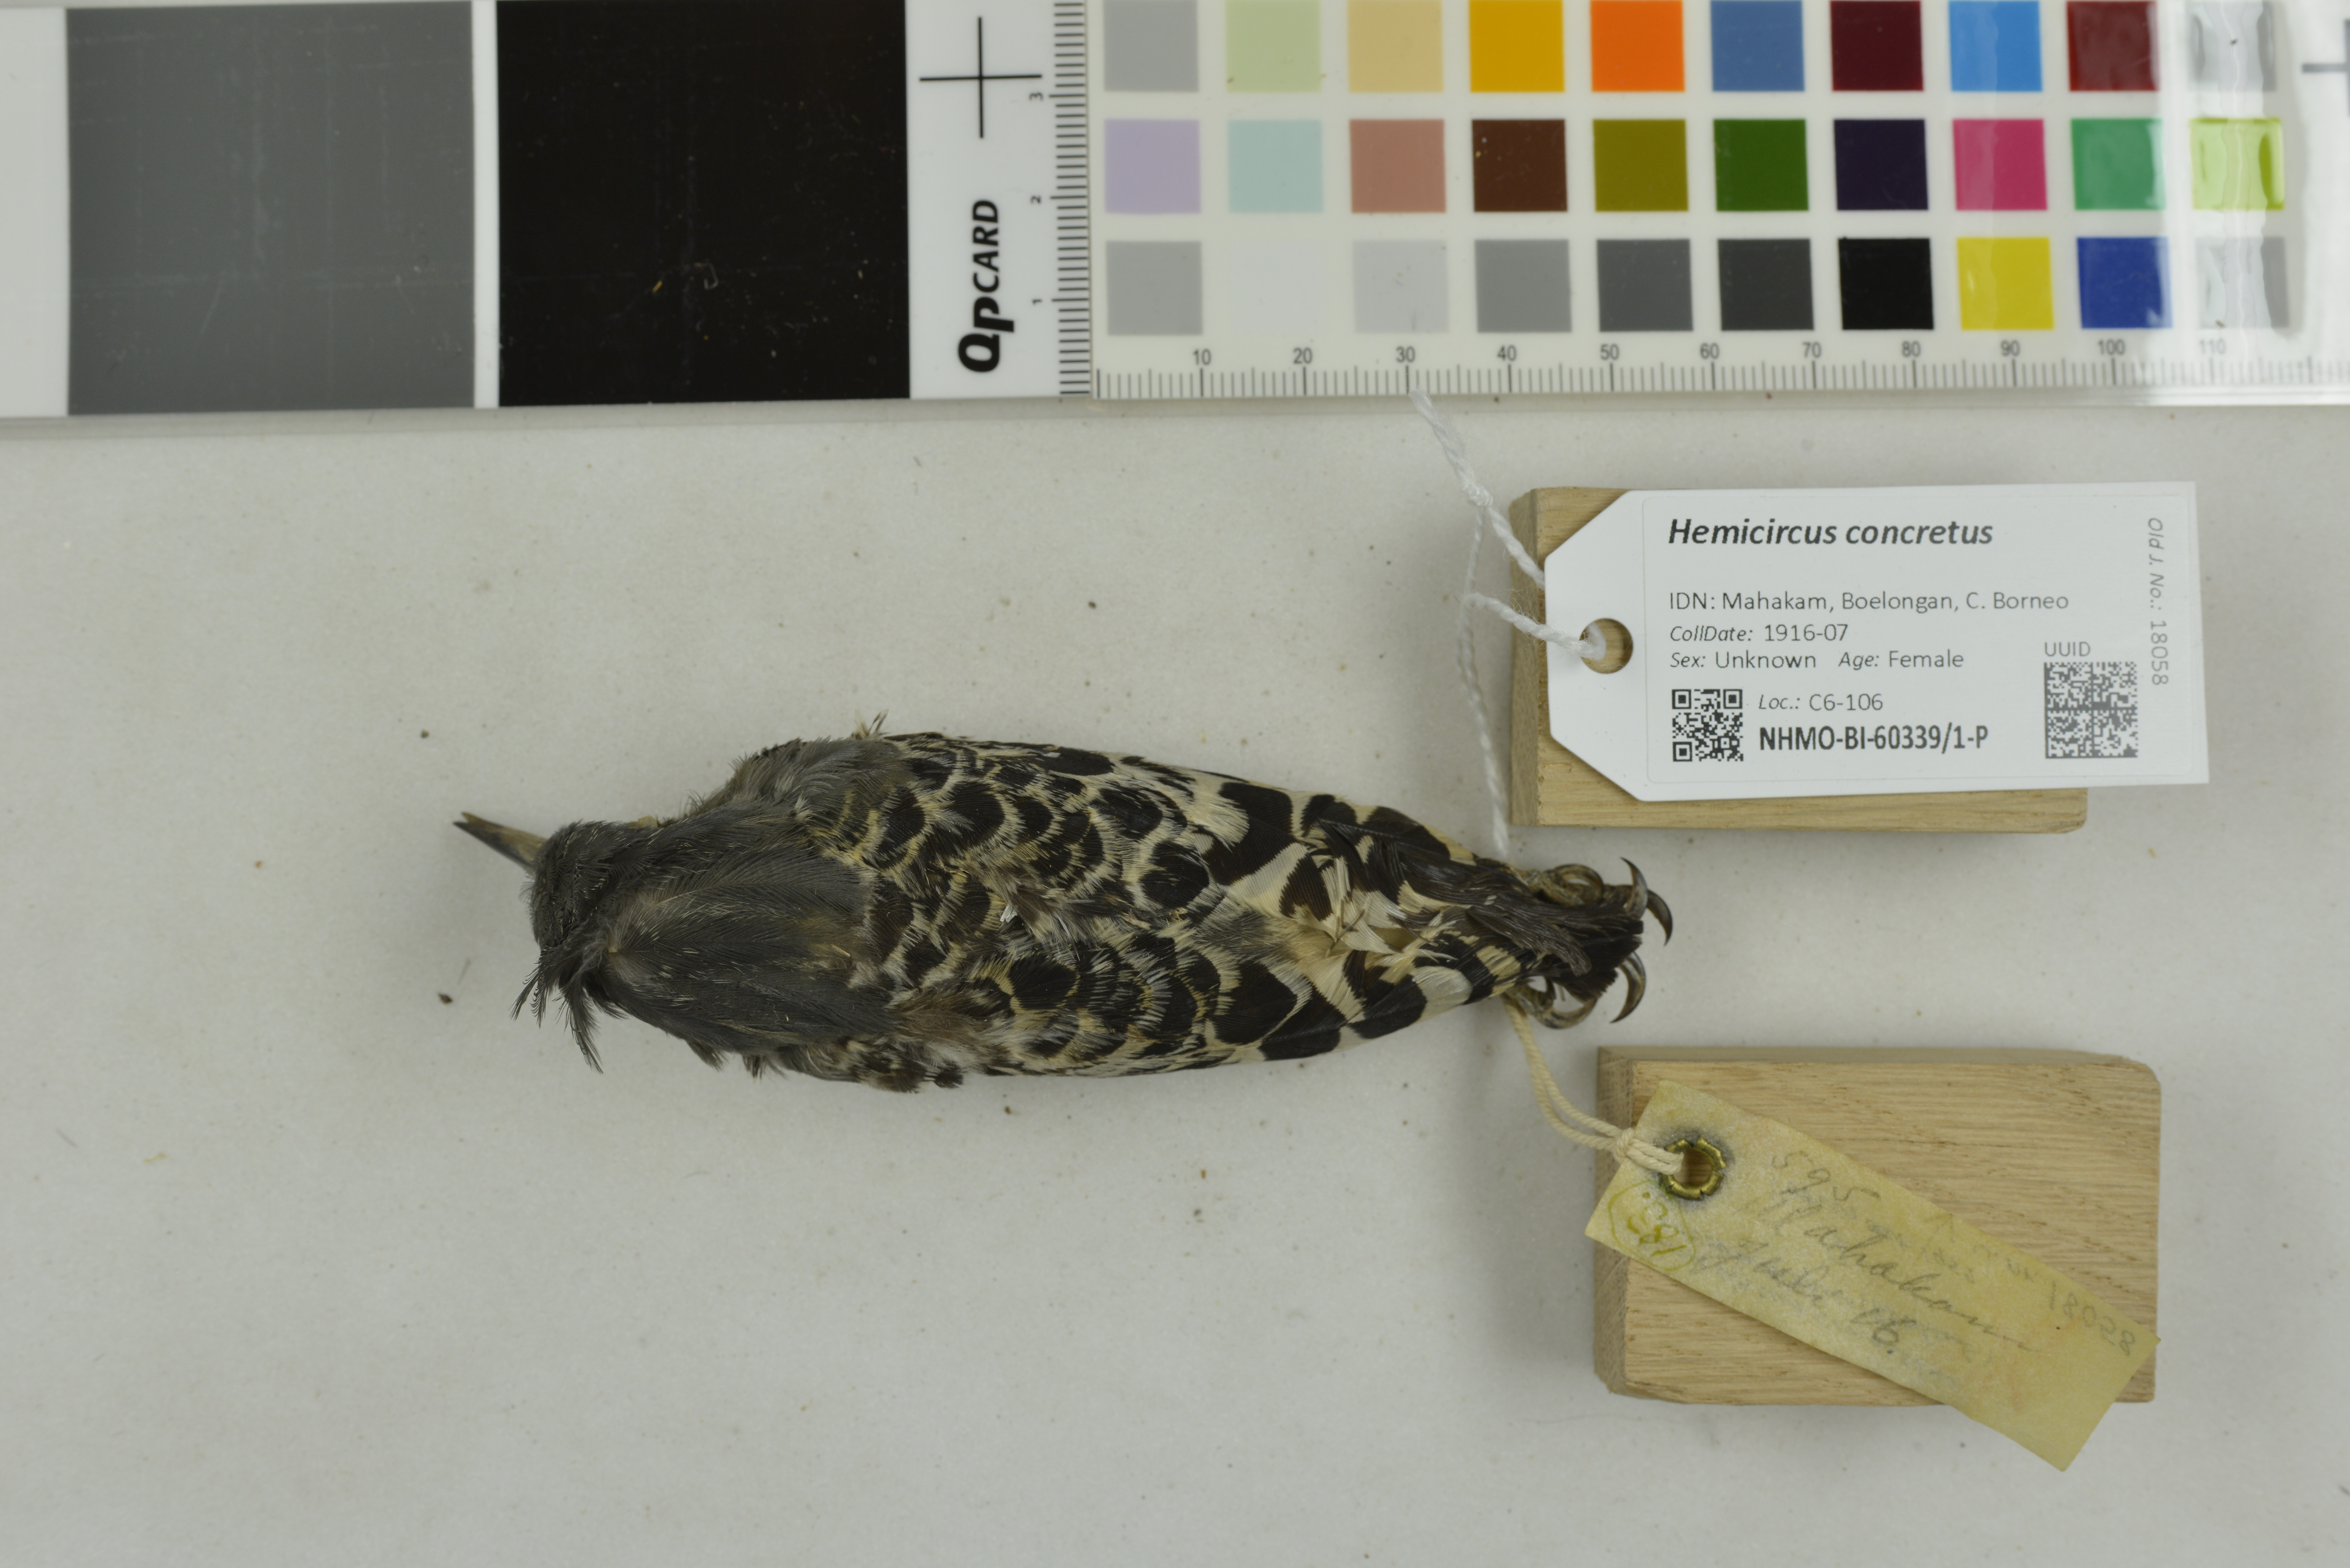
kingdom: Animalia
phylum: Chordata
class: Aves
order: Piciformes
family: Picidae
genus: Hemicircus
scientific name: Hemicircus concretus
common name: Grey-and-buff woodpecker
